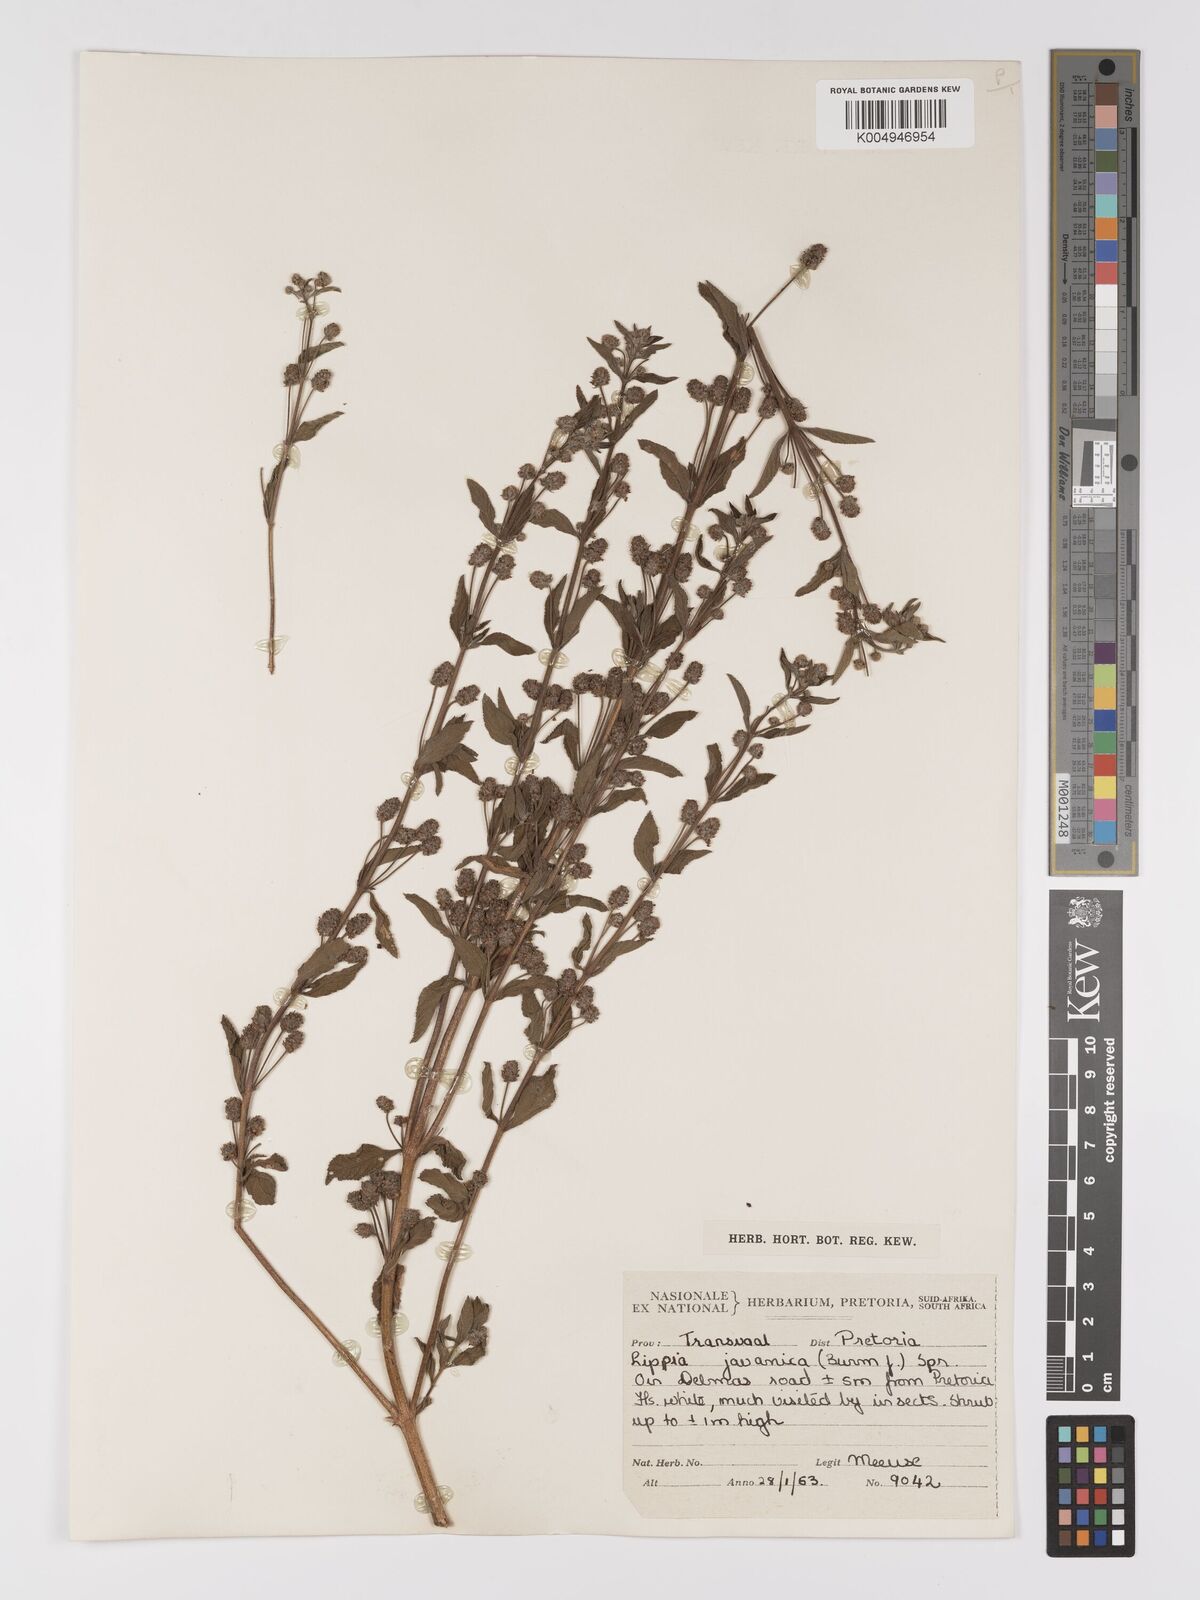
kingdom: Plantae
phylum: Tracheophyta
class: Magnoliopsida
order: Lamiales
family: Verbenaceae
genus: Lippia
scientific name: Lippia javanica
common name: Lemonbush
